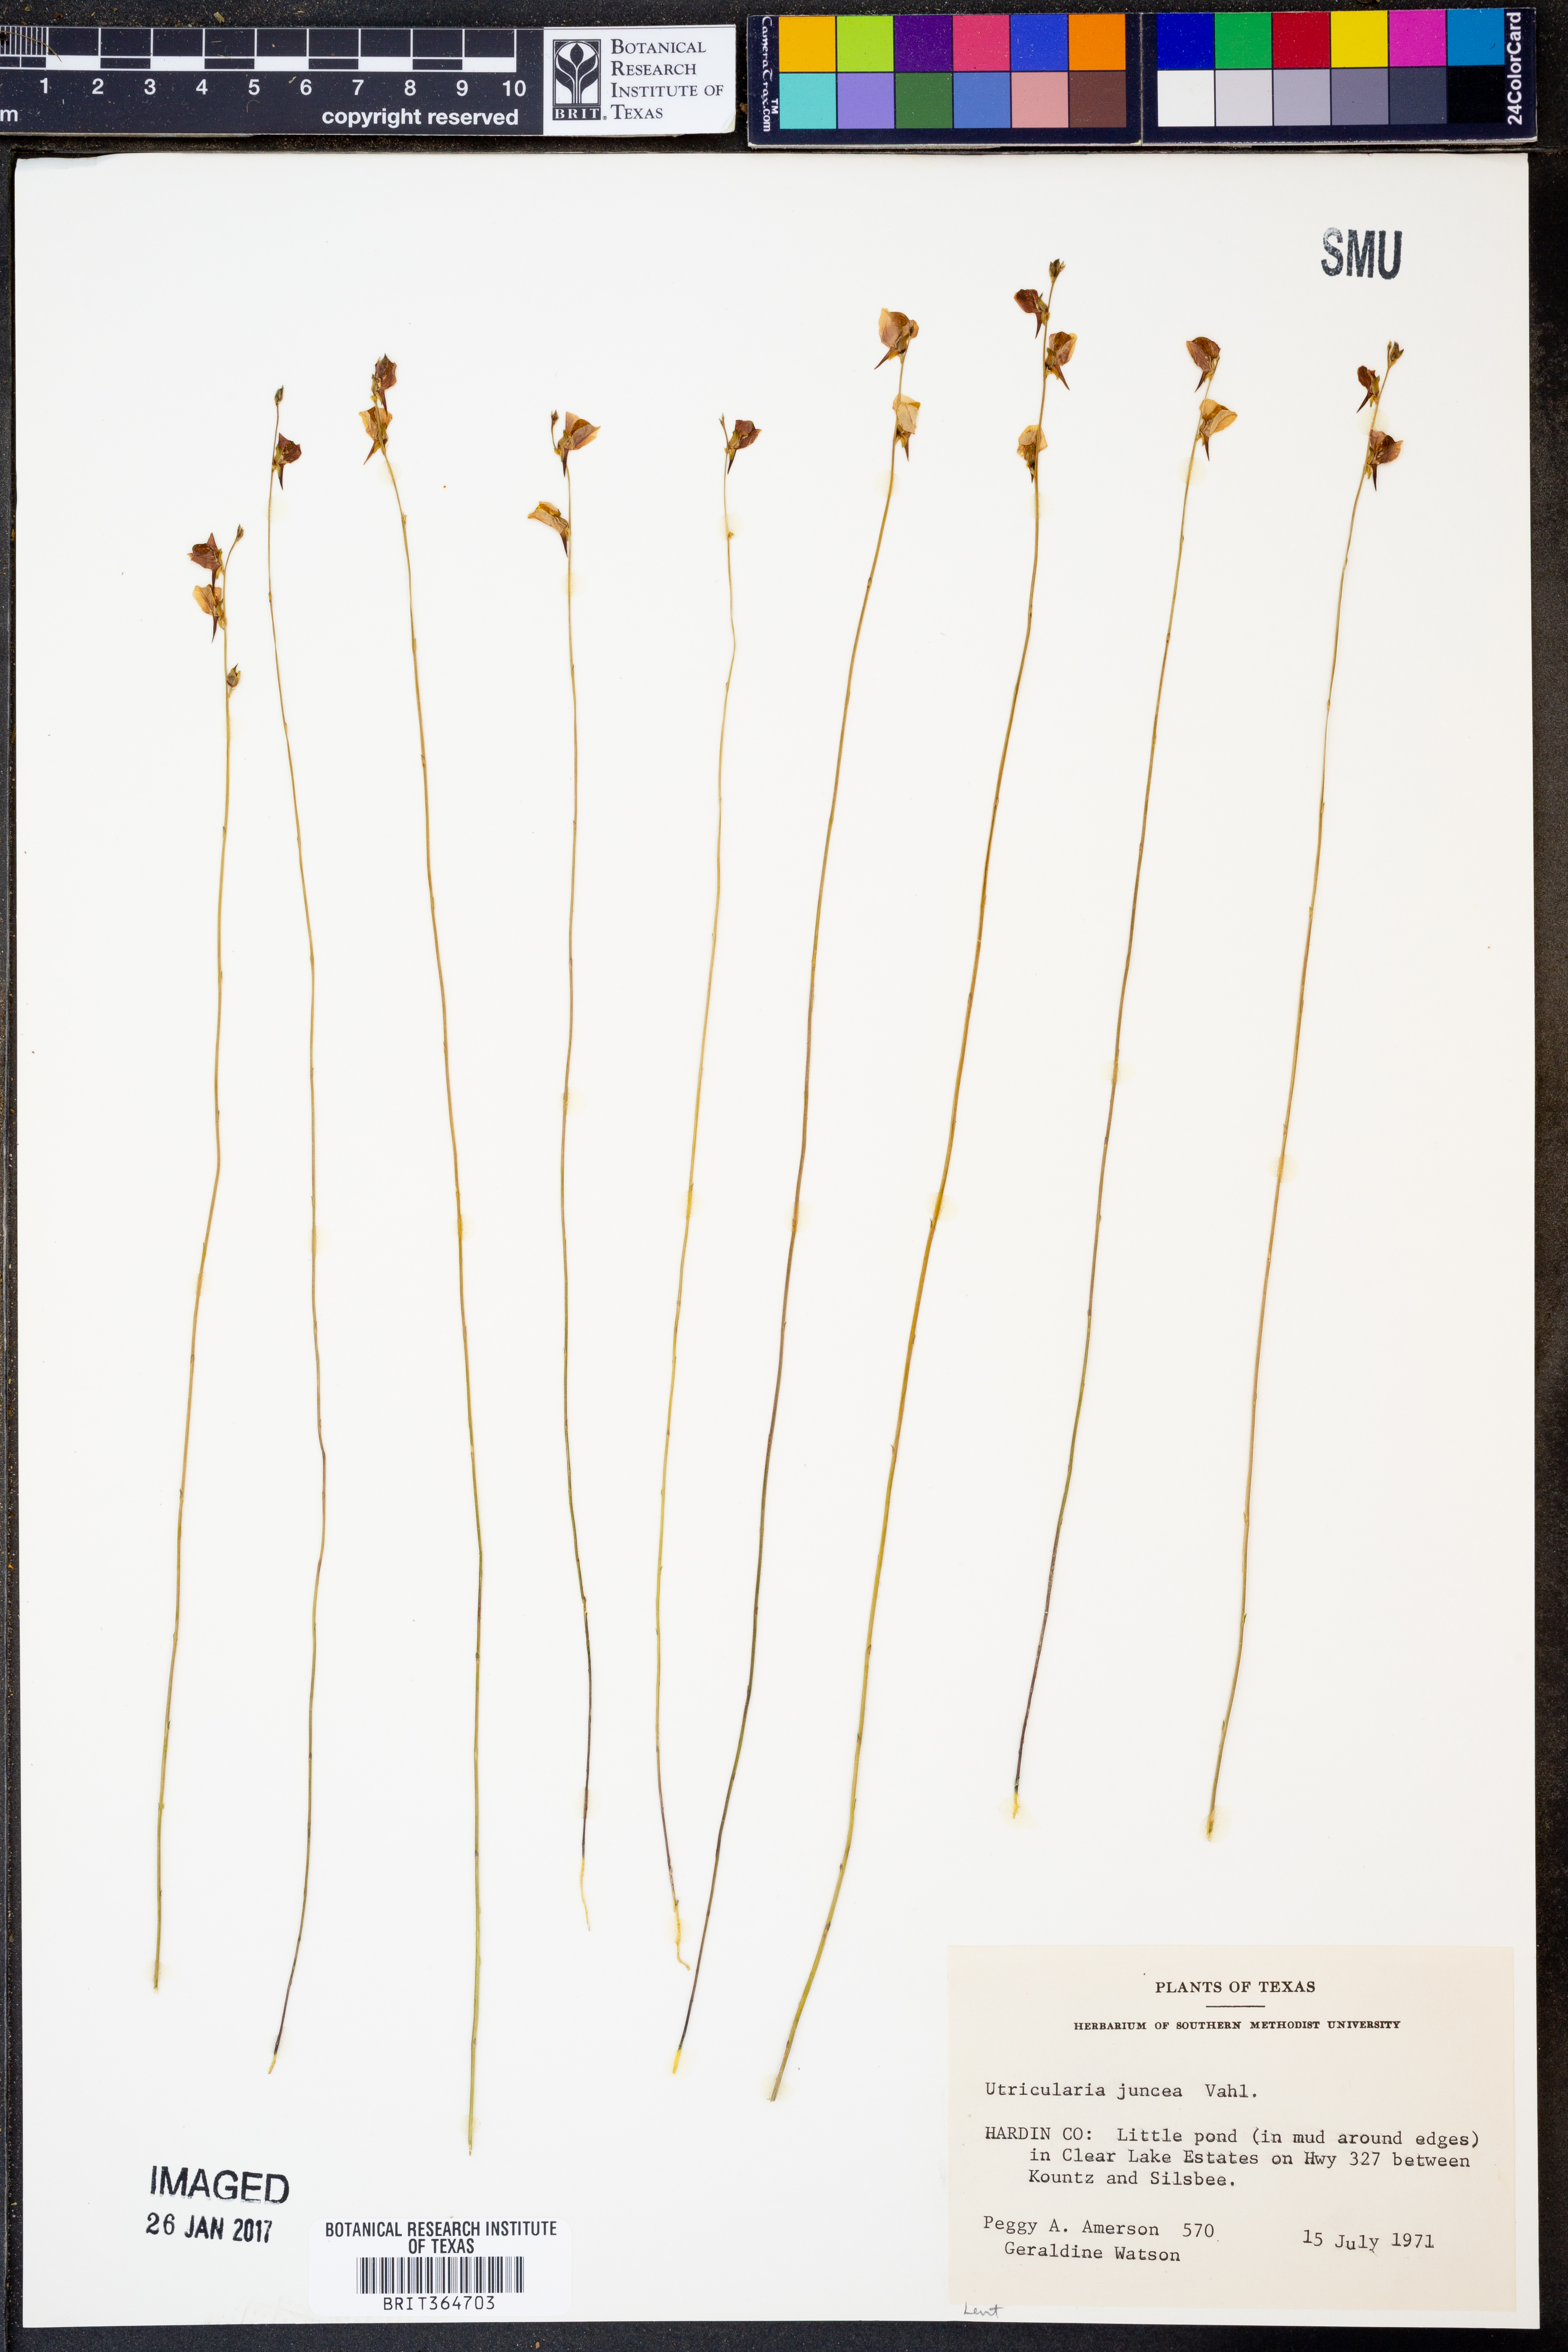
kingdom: Plantae
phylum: Tracheophyta
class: Magnoliopsida
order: Lamiales
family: Lentibulariaceae
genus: Utricularia
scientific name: Utricularia juncea
